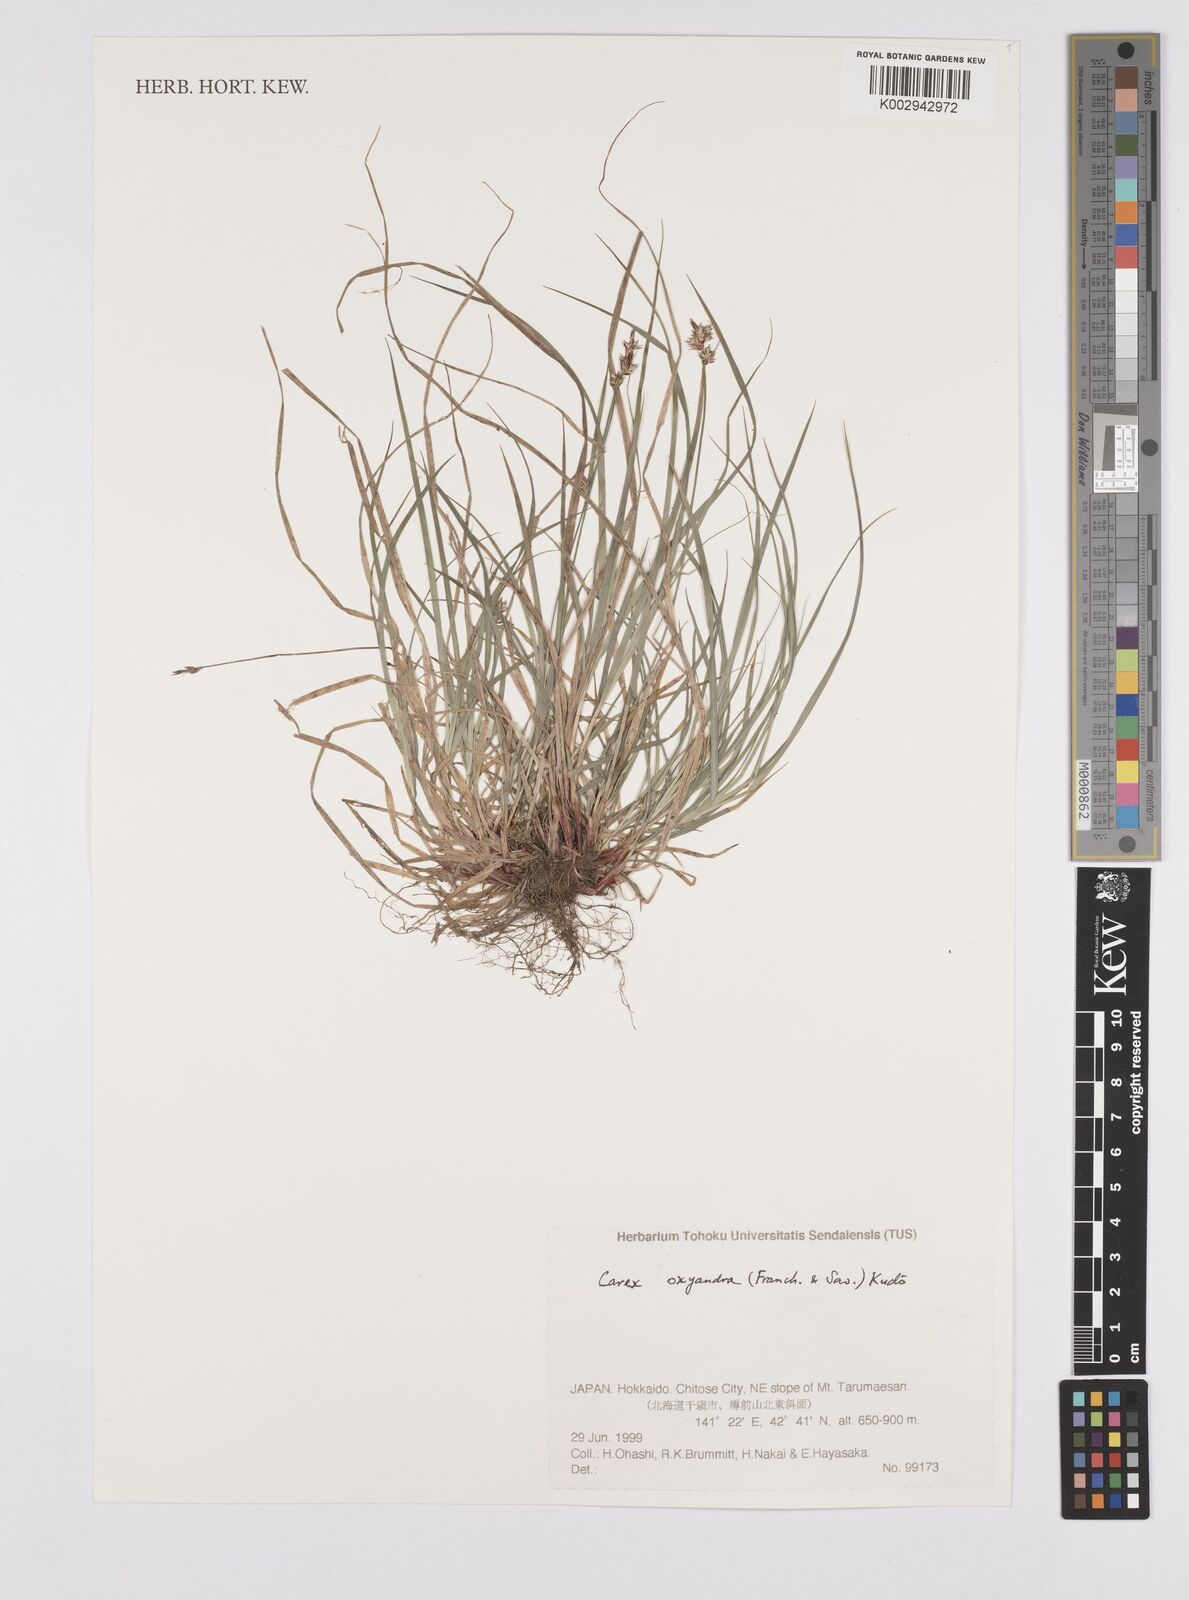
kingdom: Plantae
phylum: Tracheophyta
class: Liliopsida
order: Poales
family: Cyperaceae
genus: Carex
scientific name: Carex oxyandra
